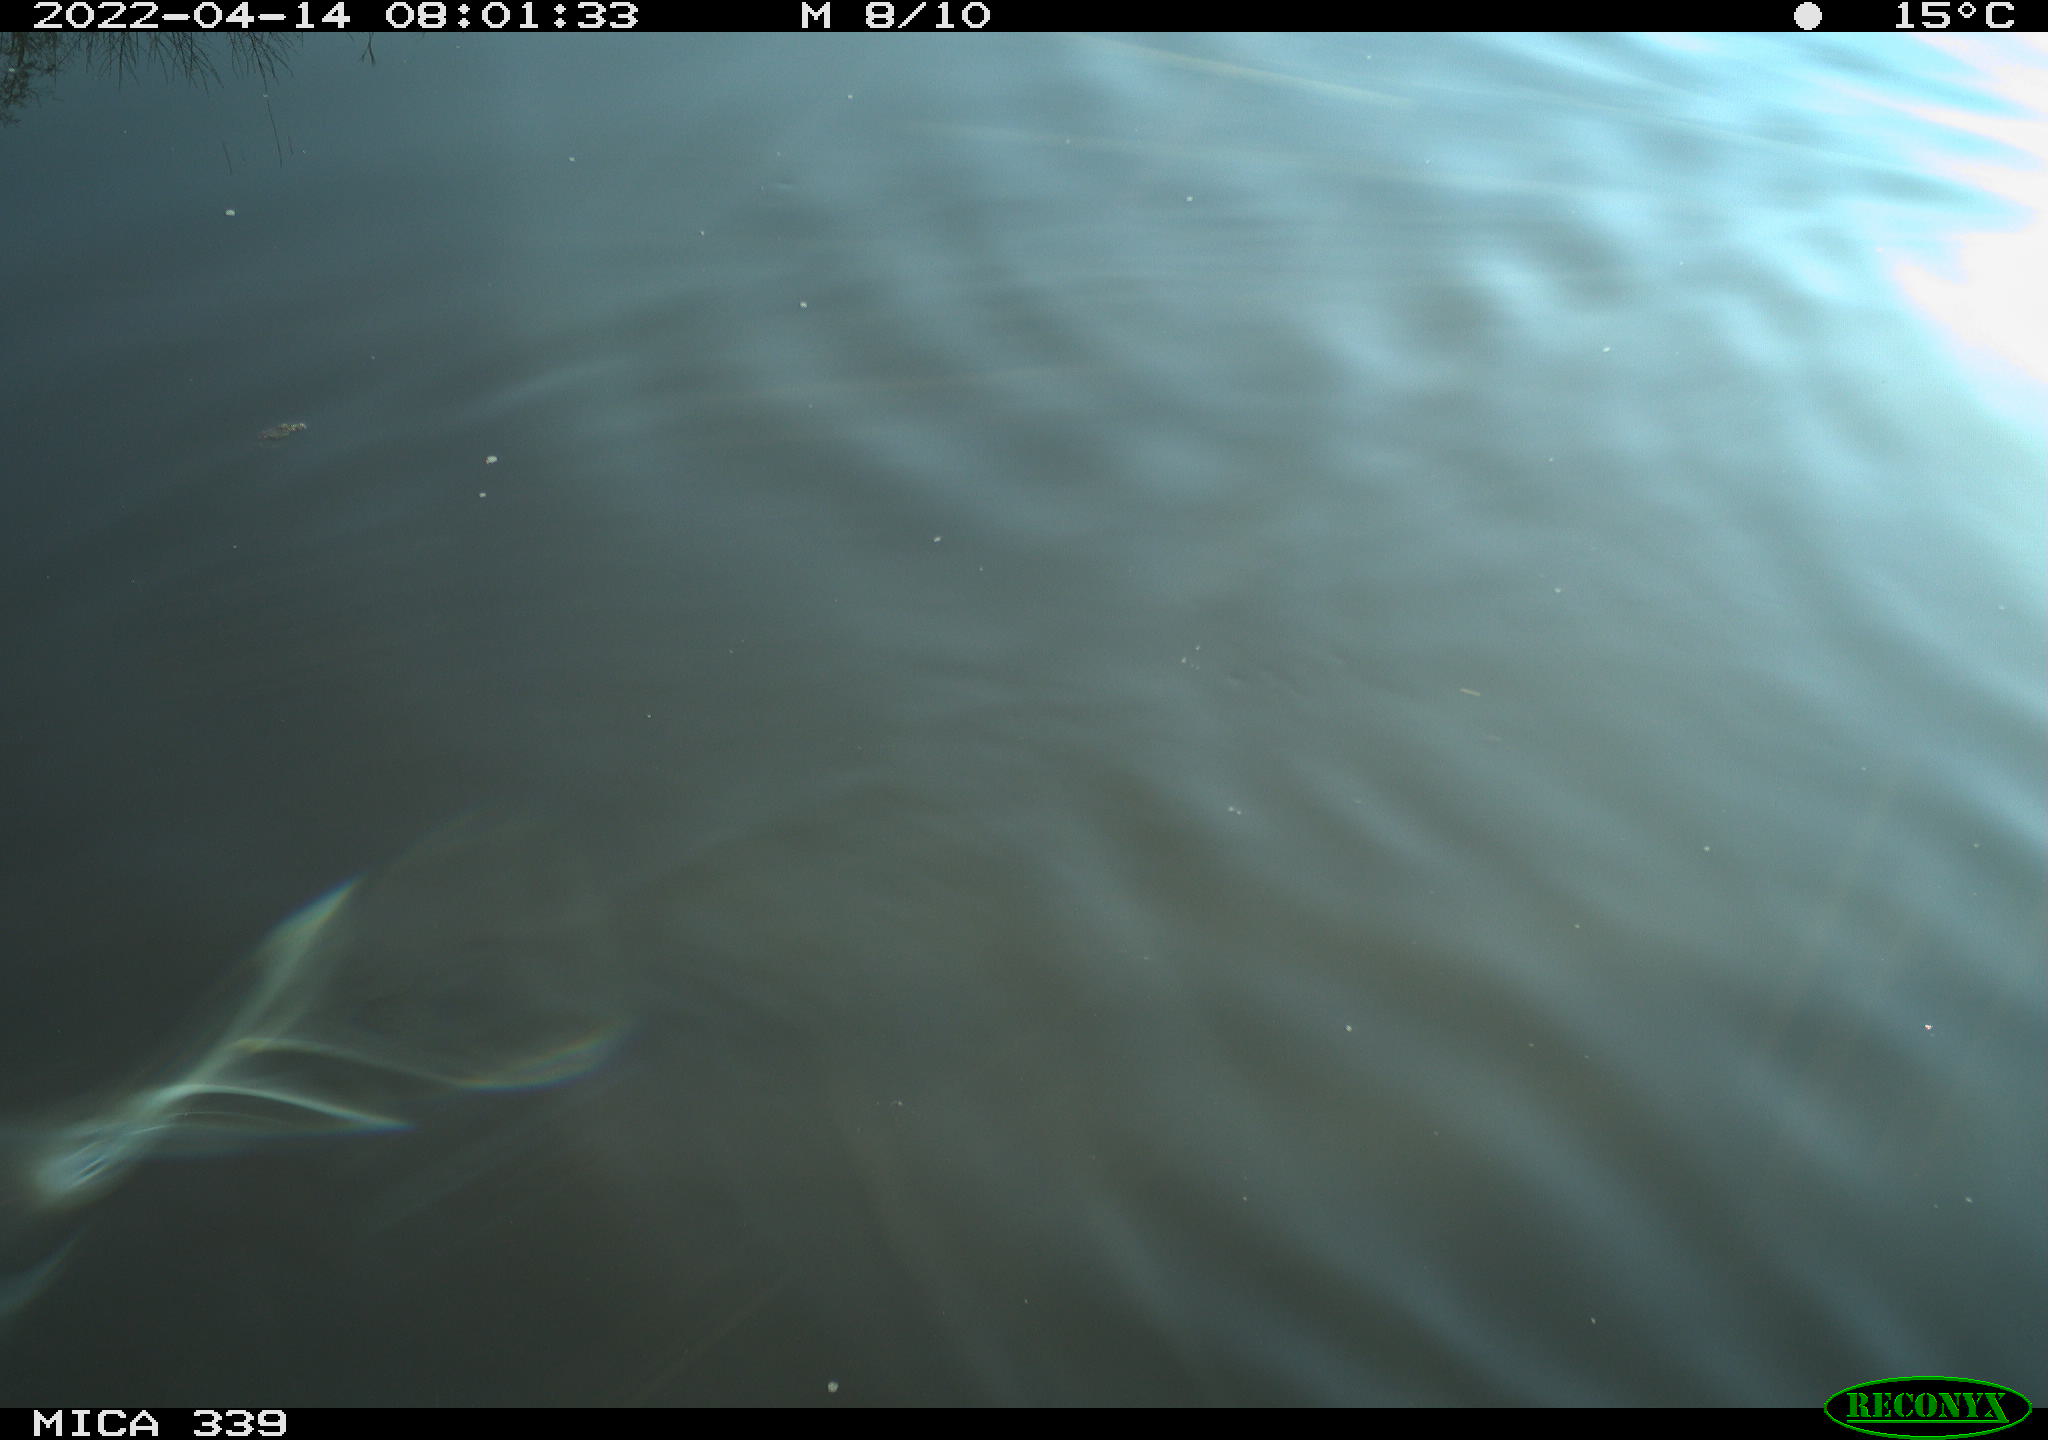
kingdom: Animalia
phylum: Chordata
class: Aves
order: Anseriformes
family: Anatidae
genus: Anas
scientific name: Anas platyrhynchos
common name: Mallard
